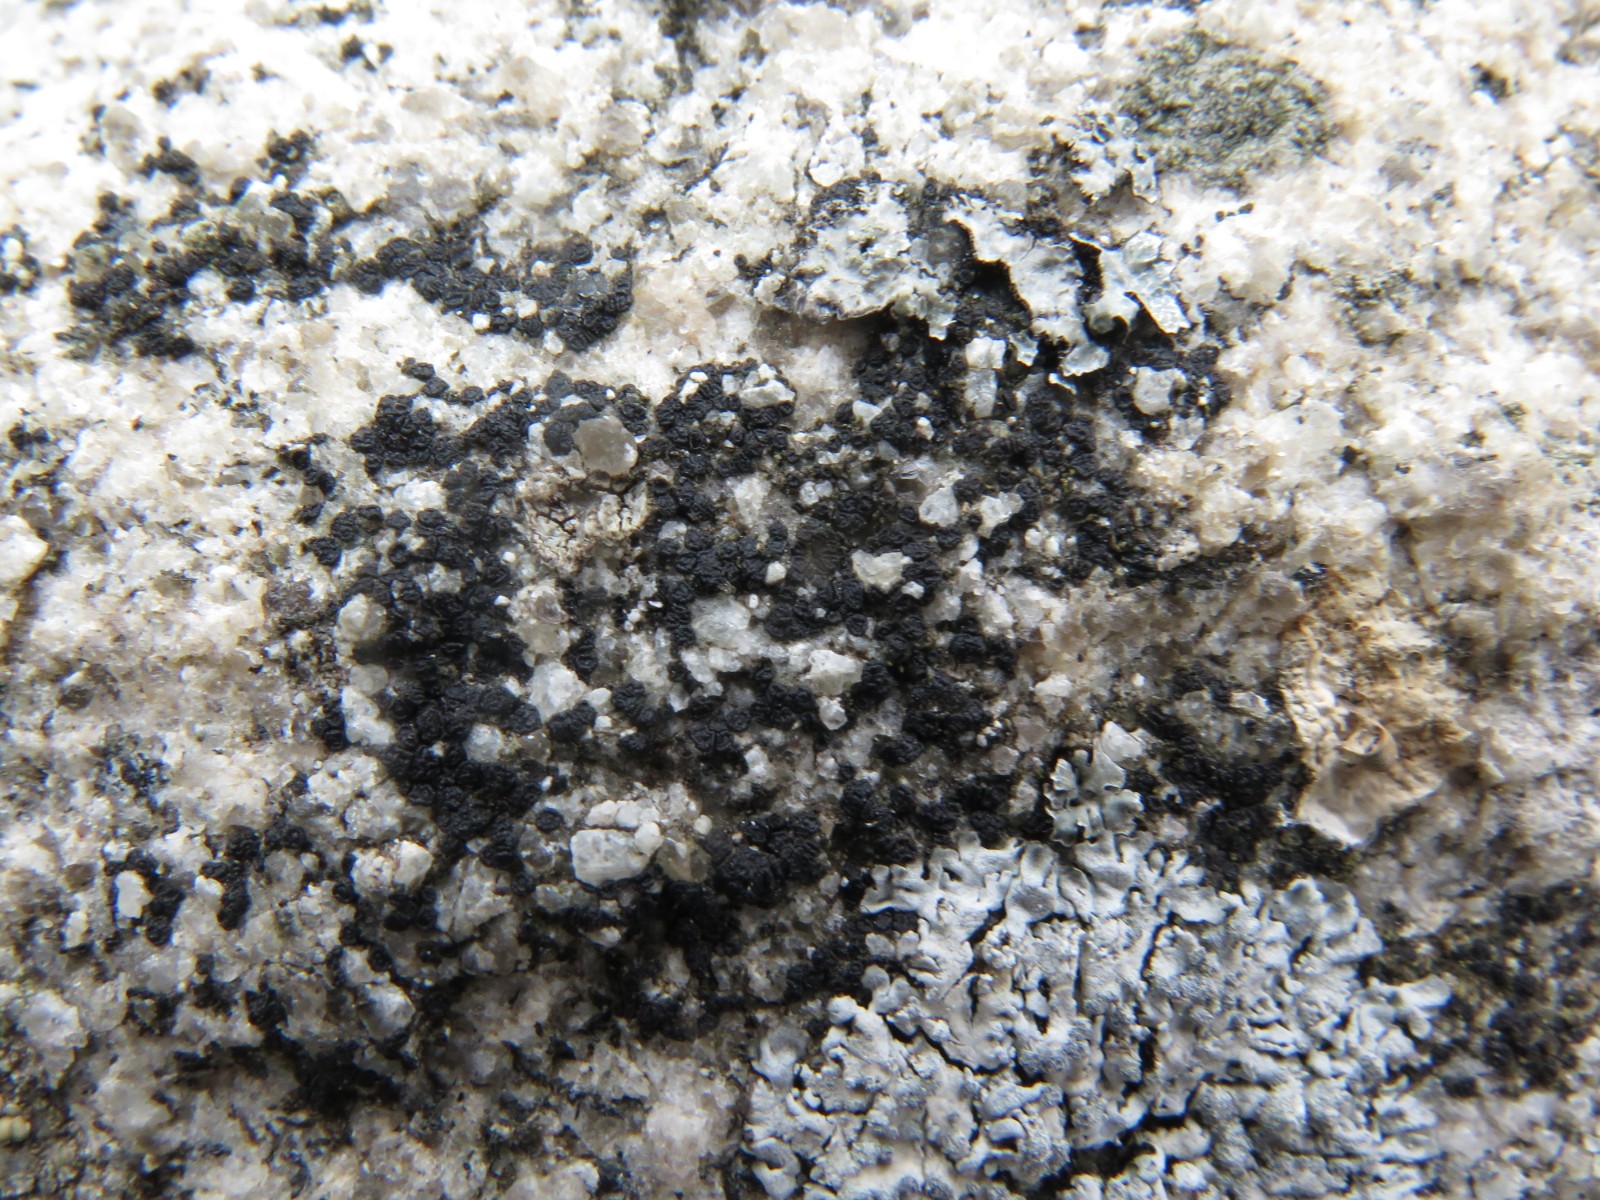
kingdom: Fungi
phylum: Ascomycota
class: Lecanoromycetes
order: Acarosporales
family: Acarosporaceae
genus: Acarospora
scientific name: Acarospora privigna
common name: sort foldekantlav
